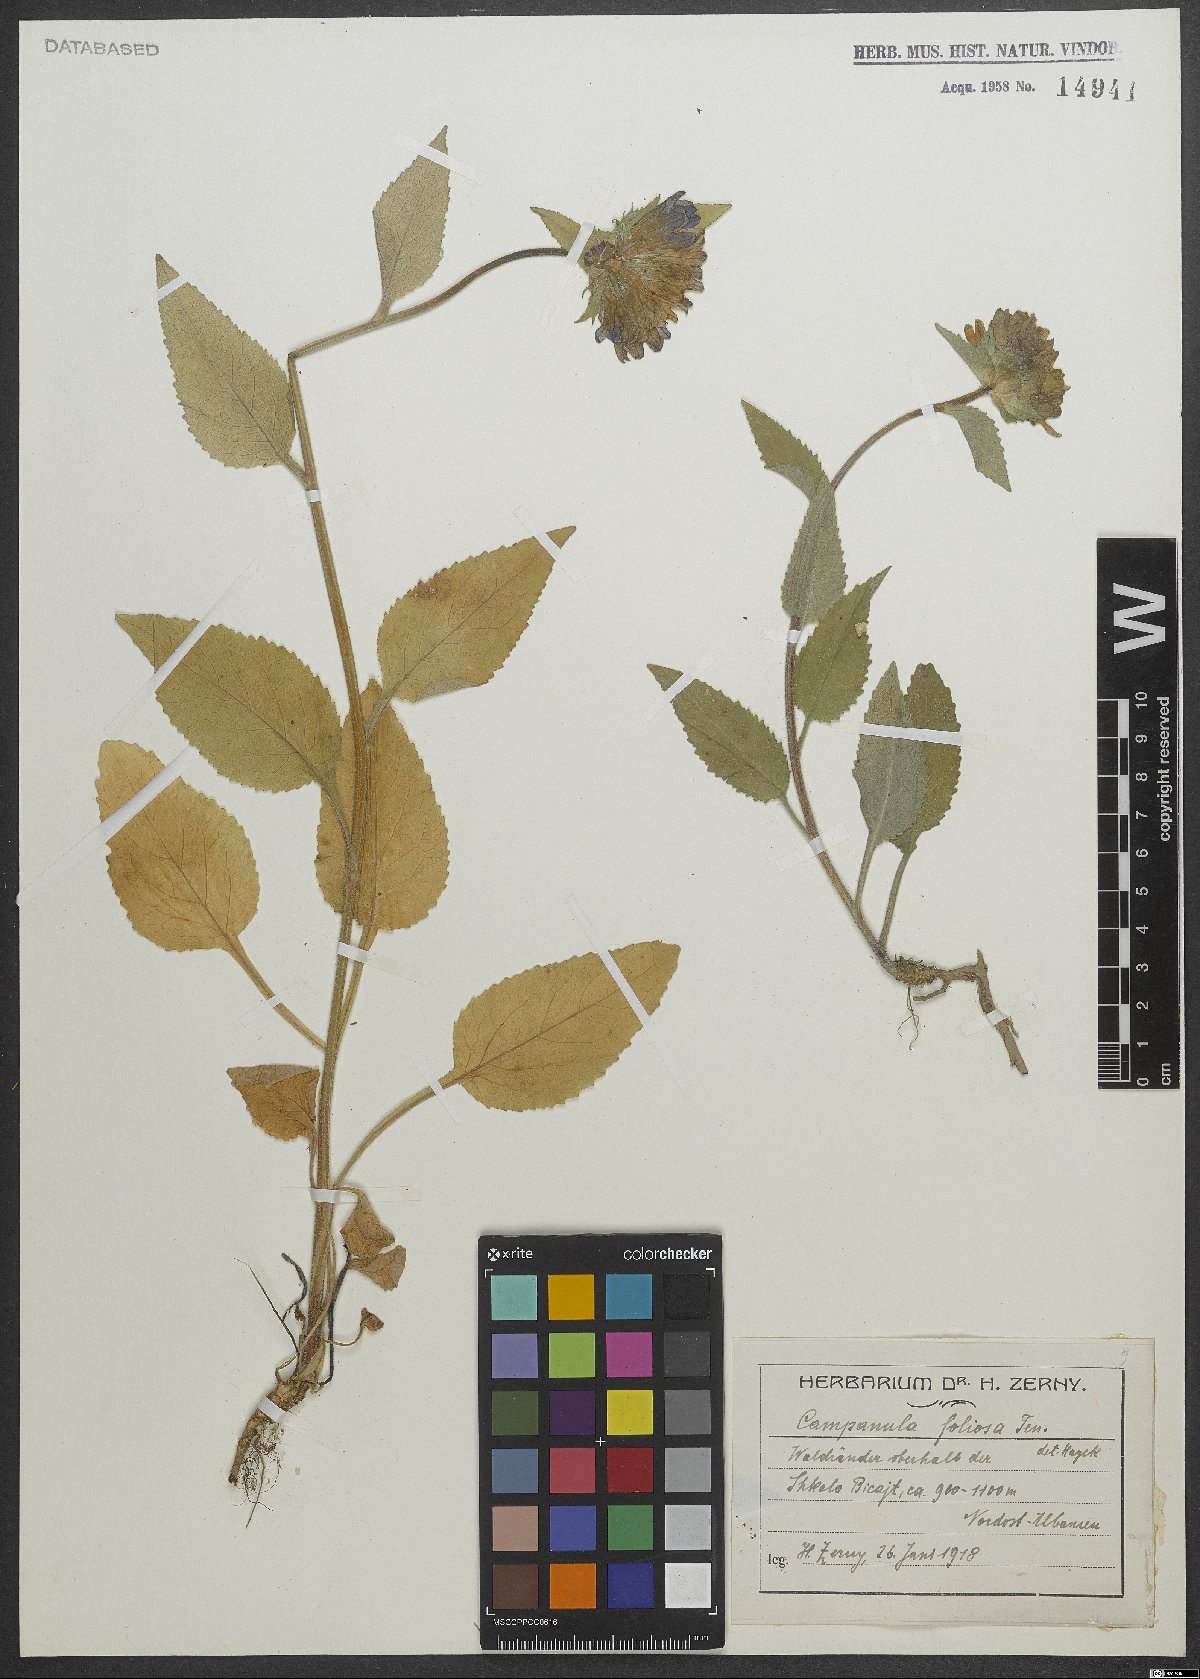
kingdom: Plantae
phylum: Tracheophyta
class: Magnoliopsida
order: Asterales
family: Campanulaceae
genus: Campanula
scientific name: Campanula foliosa
